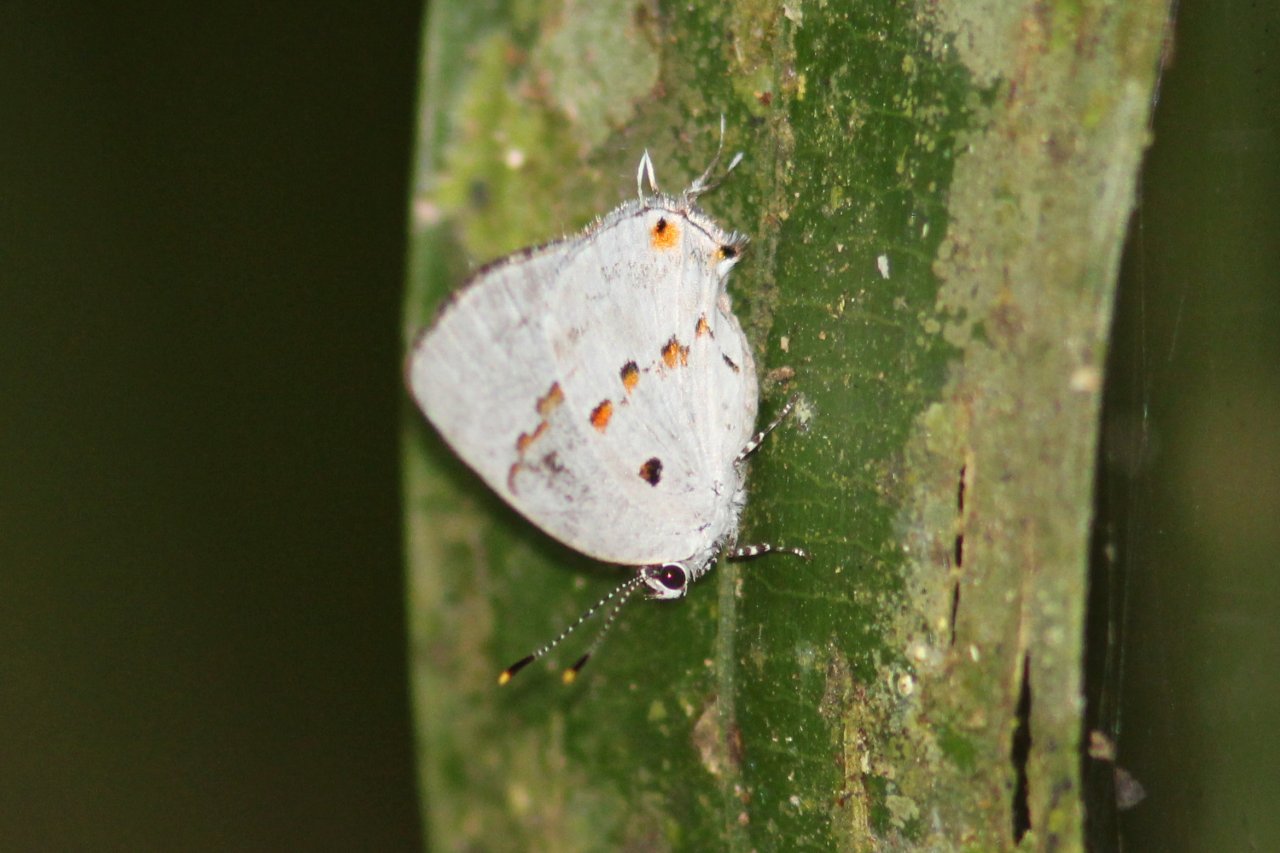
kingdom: Animalia
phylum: Arthropoda
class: Insecta
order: Lepidoptera
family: Lycaenidae
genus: Thecla
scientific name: Thecla celmus
